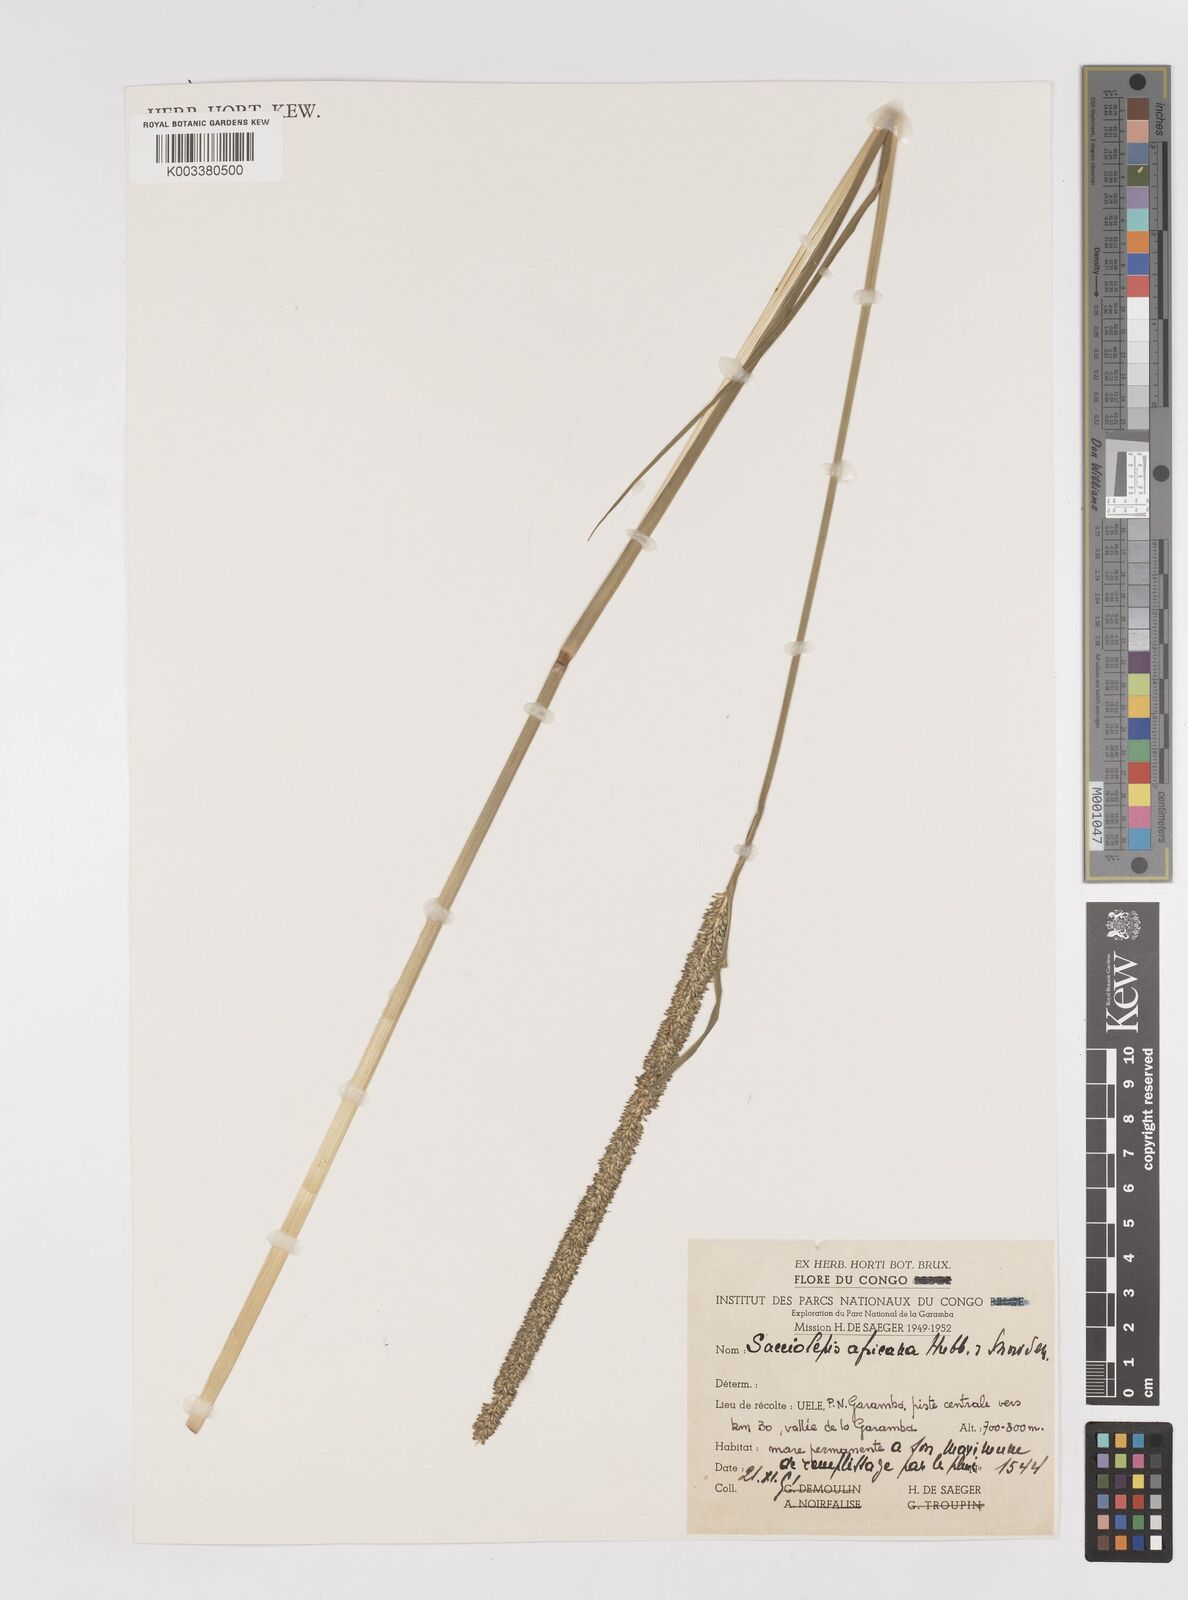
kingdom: Plantae
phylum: Tracheophyta
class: Liliopsida
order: Poales
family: Poaceae
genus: Sacciolepis
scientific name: Sacciolepis africana
